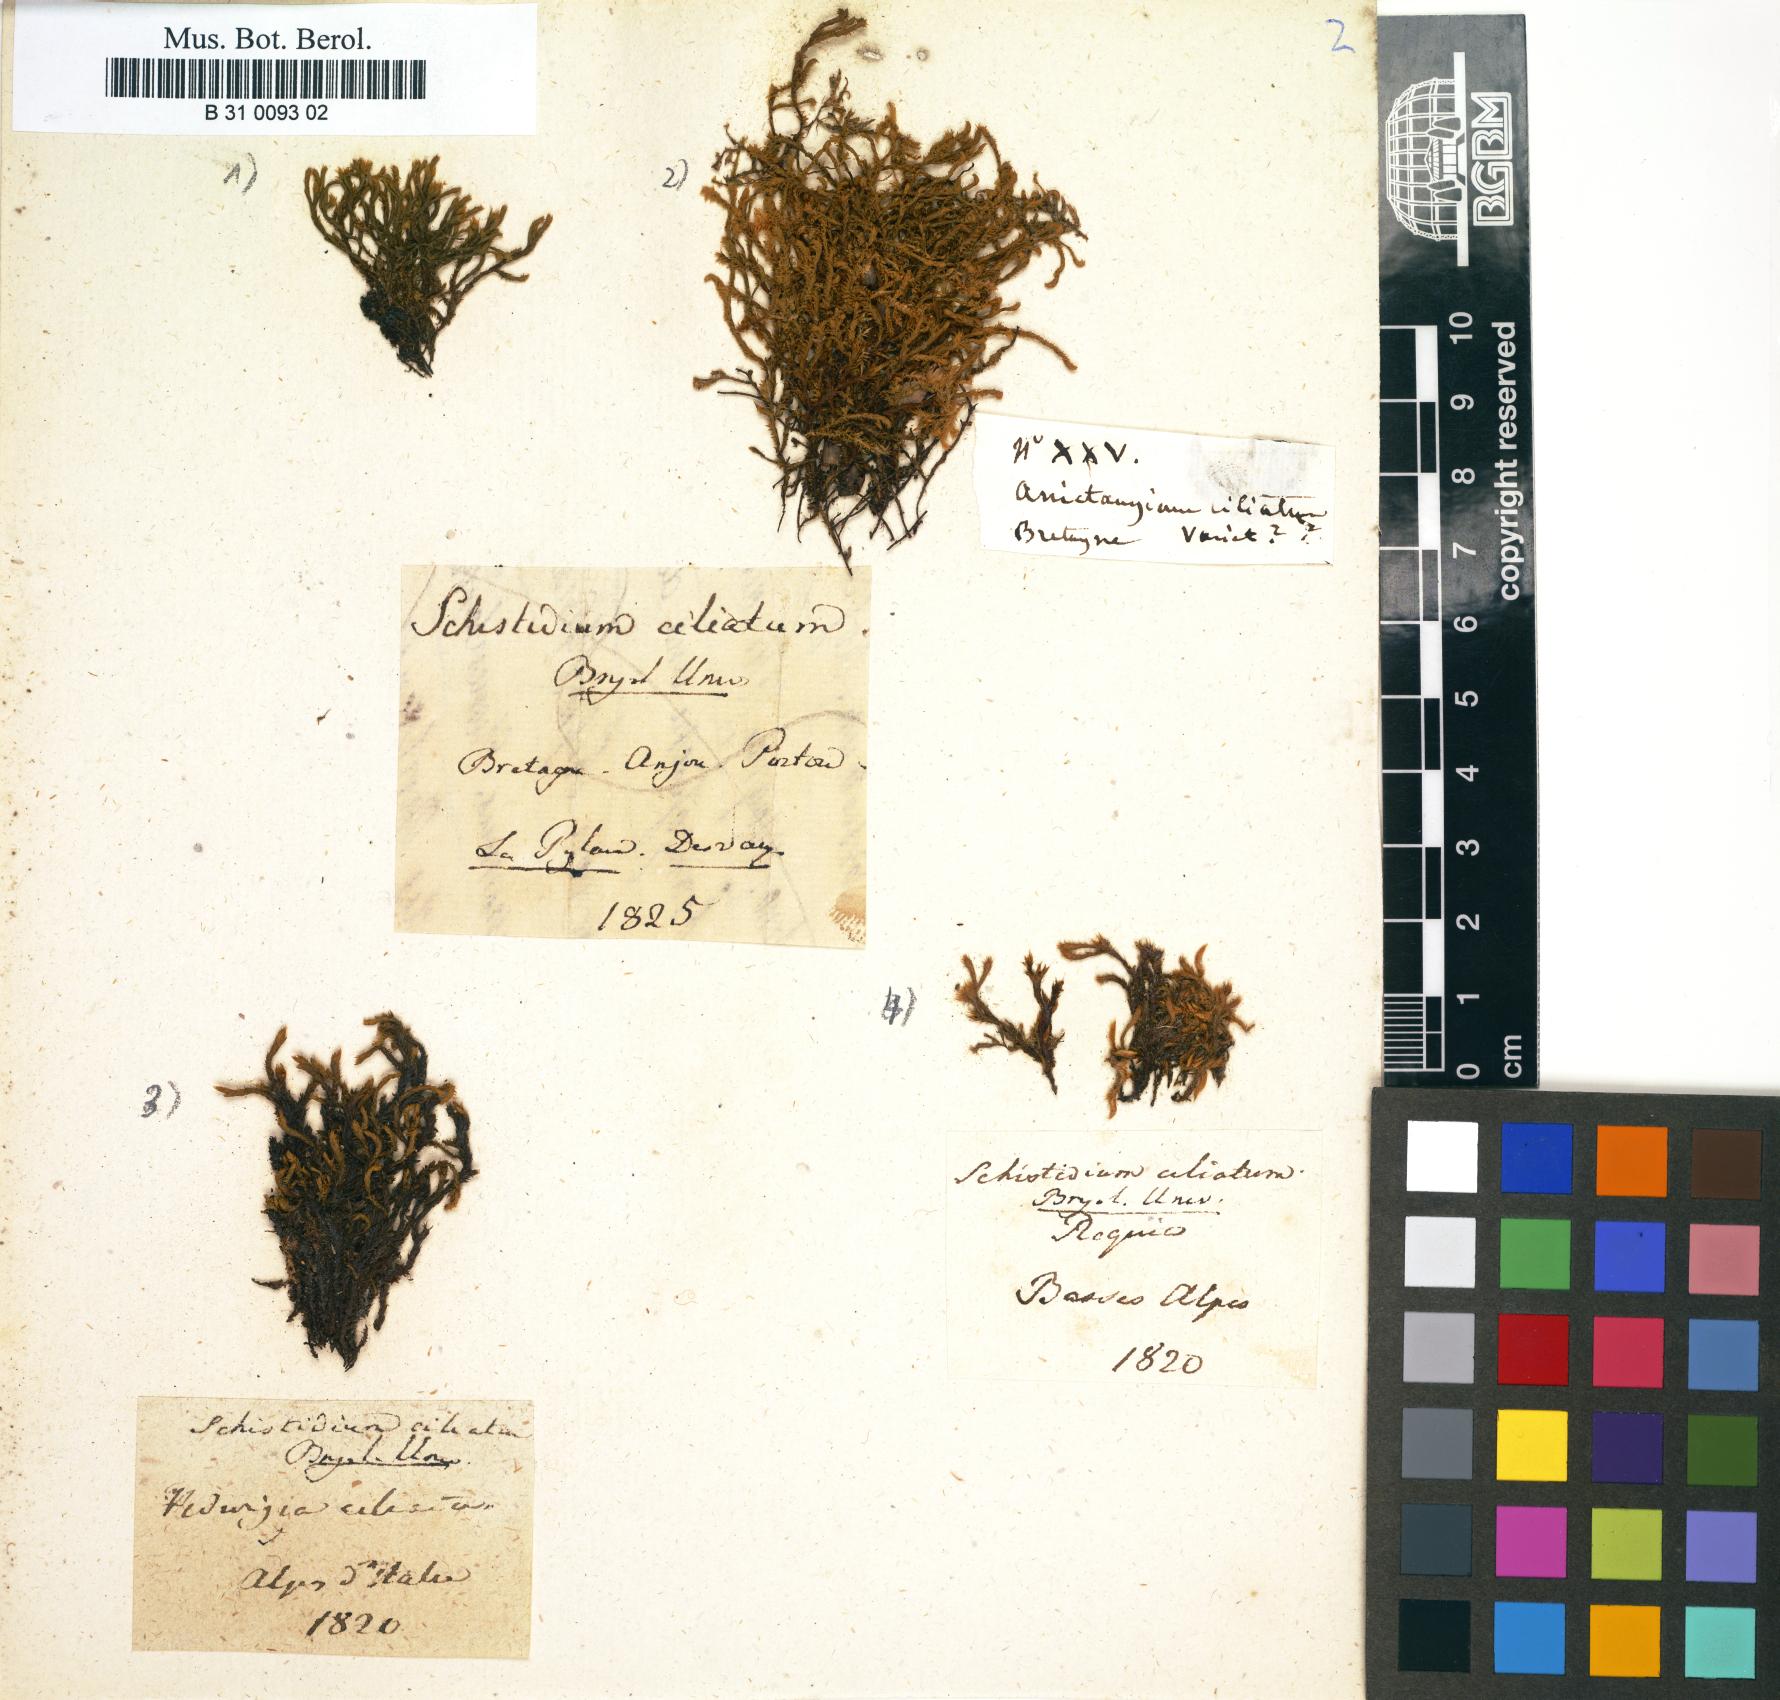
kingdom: Plantae
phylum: Bryophyta
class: Bryopsida
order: Hedwigiales
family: Hedwigiaceae
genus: Hedwigia
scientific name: Hedwigia ciliata
